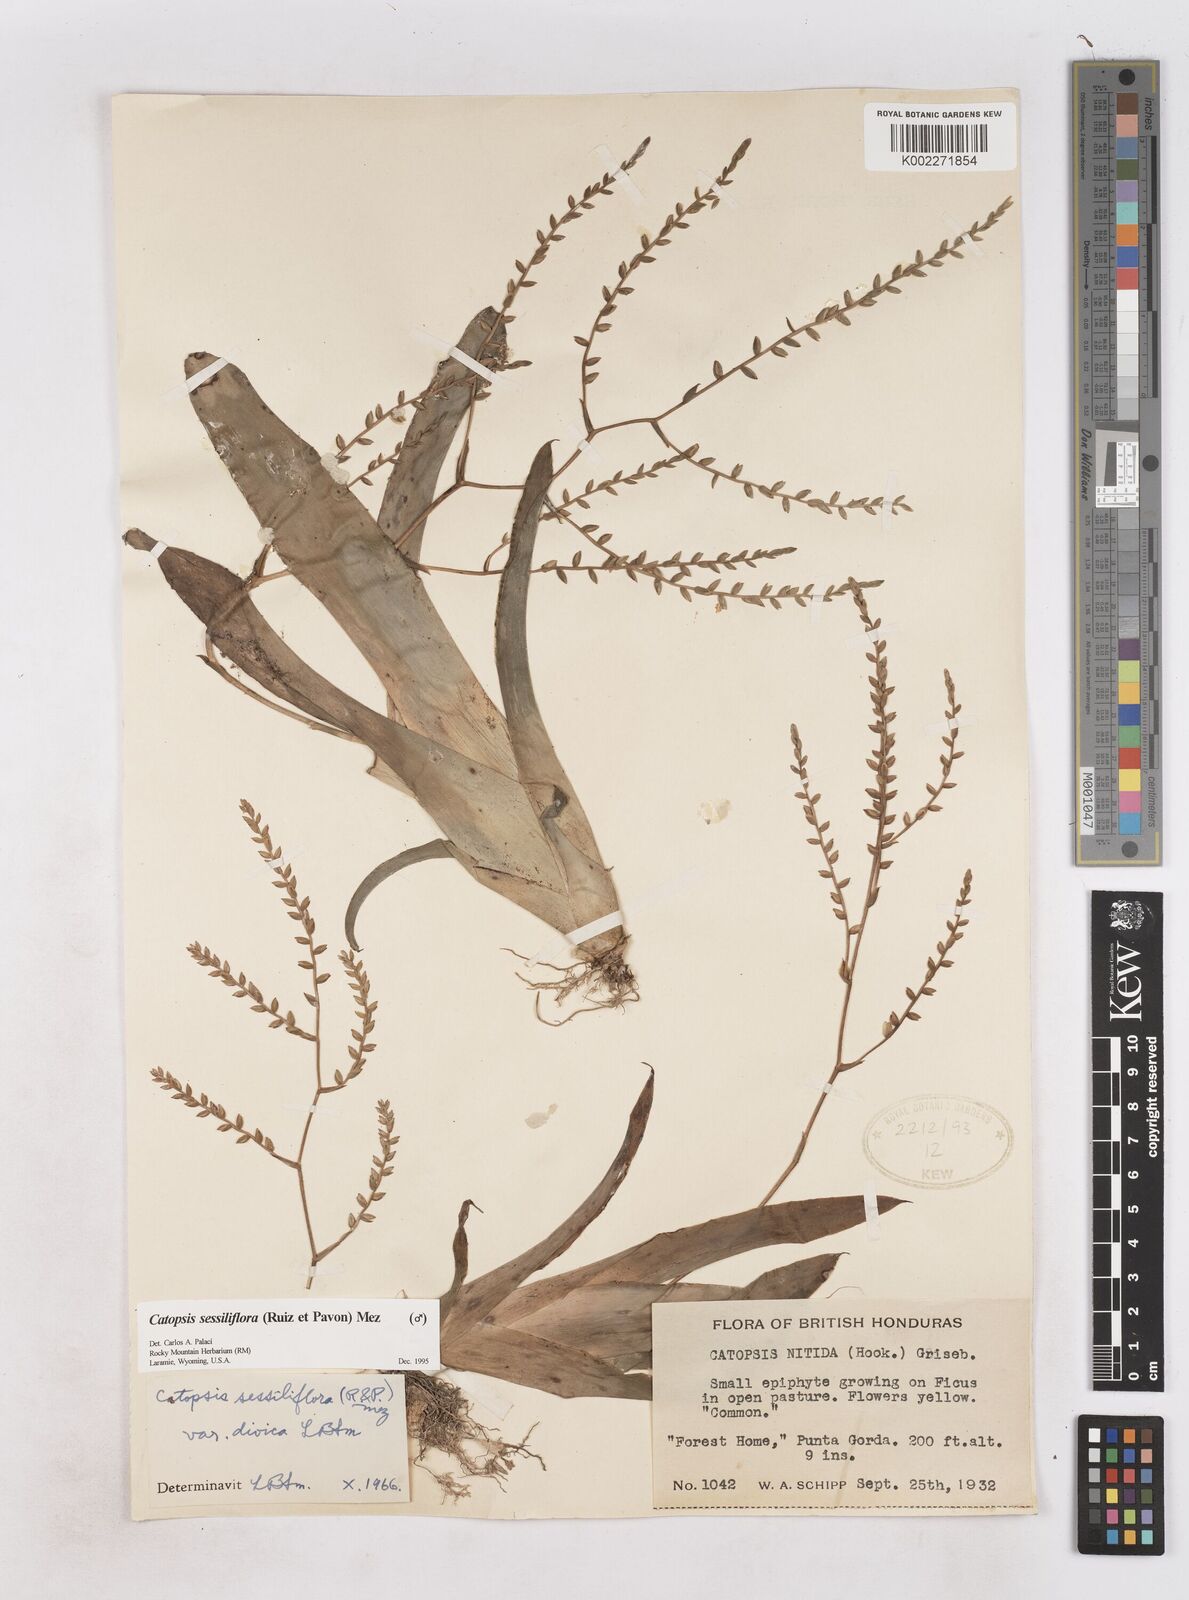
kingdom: Plantae
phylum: Tracheophyta
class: Liliopsida
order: Poales
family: Bromeliaceae
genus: Catopsis
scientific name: Catopsis sessiliflora
